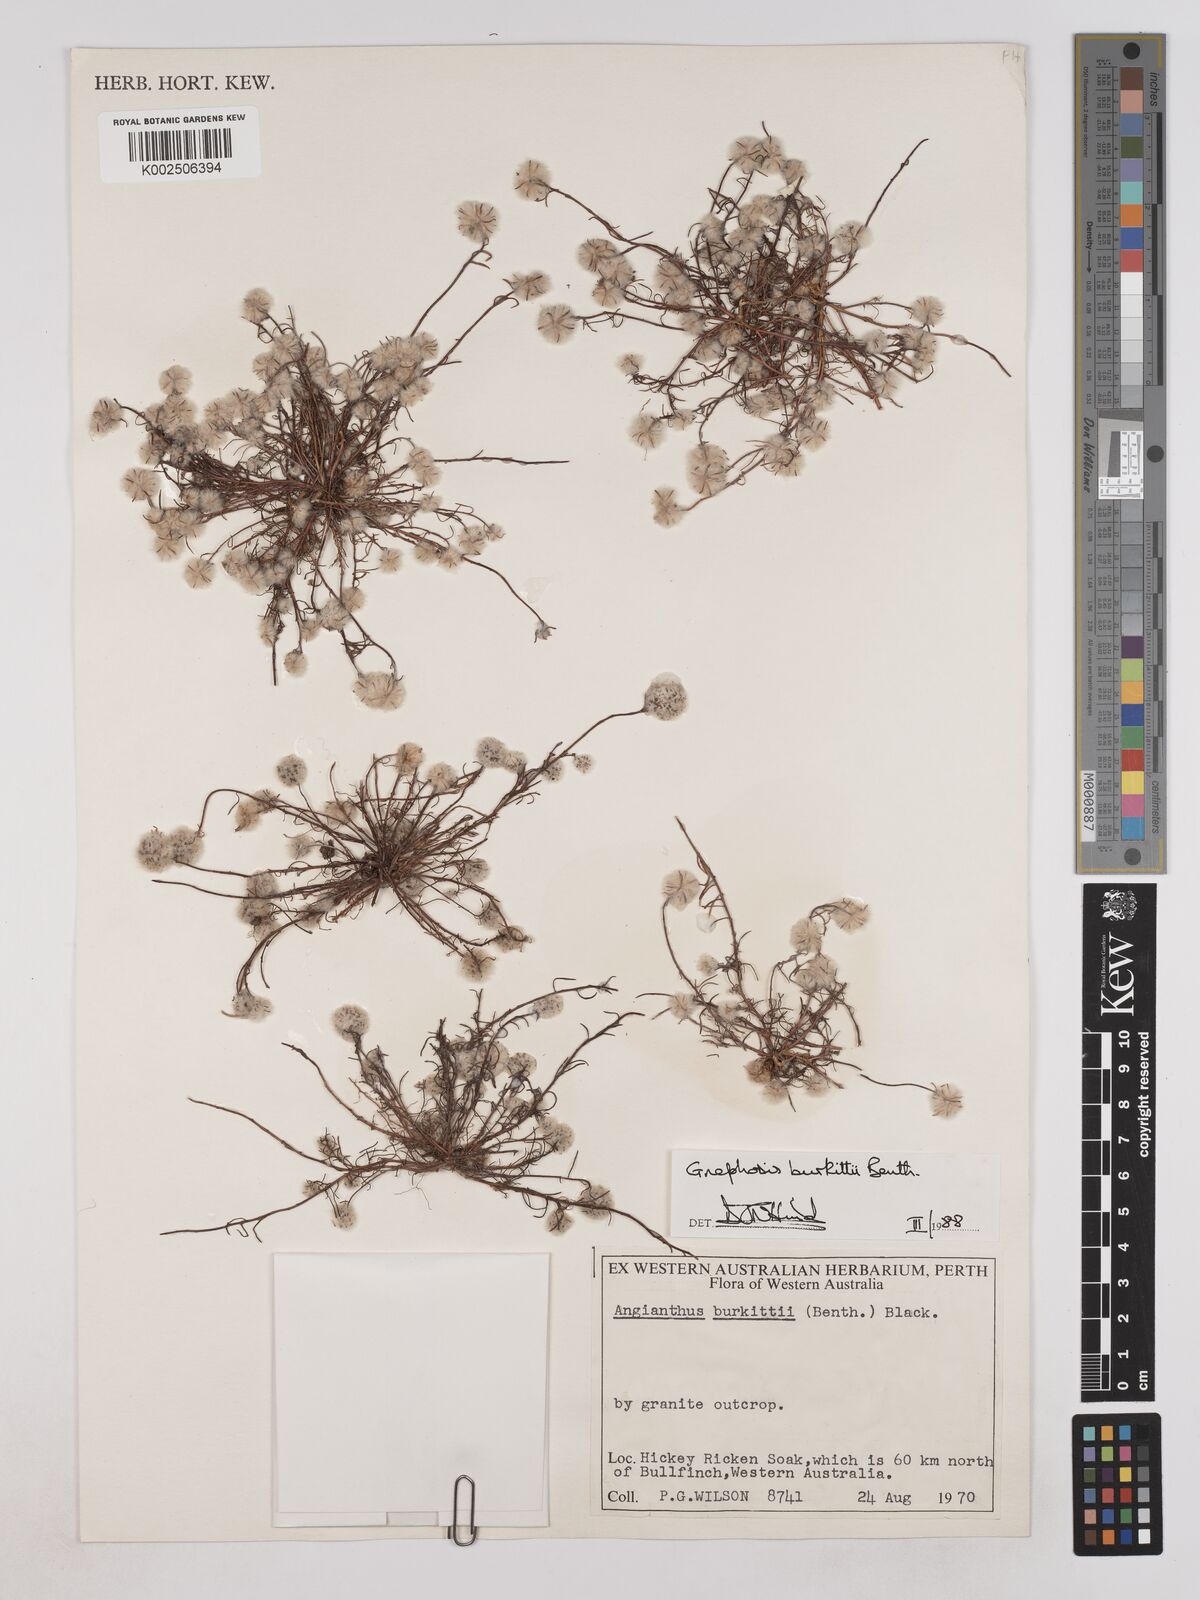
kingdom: Plantae
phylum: Tracheophyta
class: Magnoliopsida
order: Asterales
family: Asteraceae
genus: Lemooria
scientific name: Lemooria burkittii
